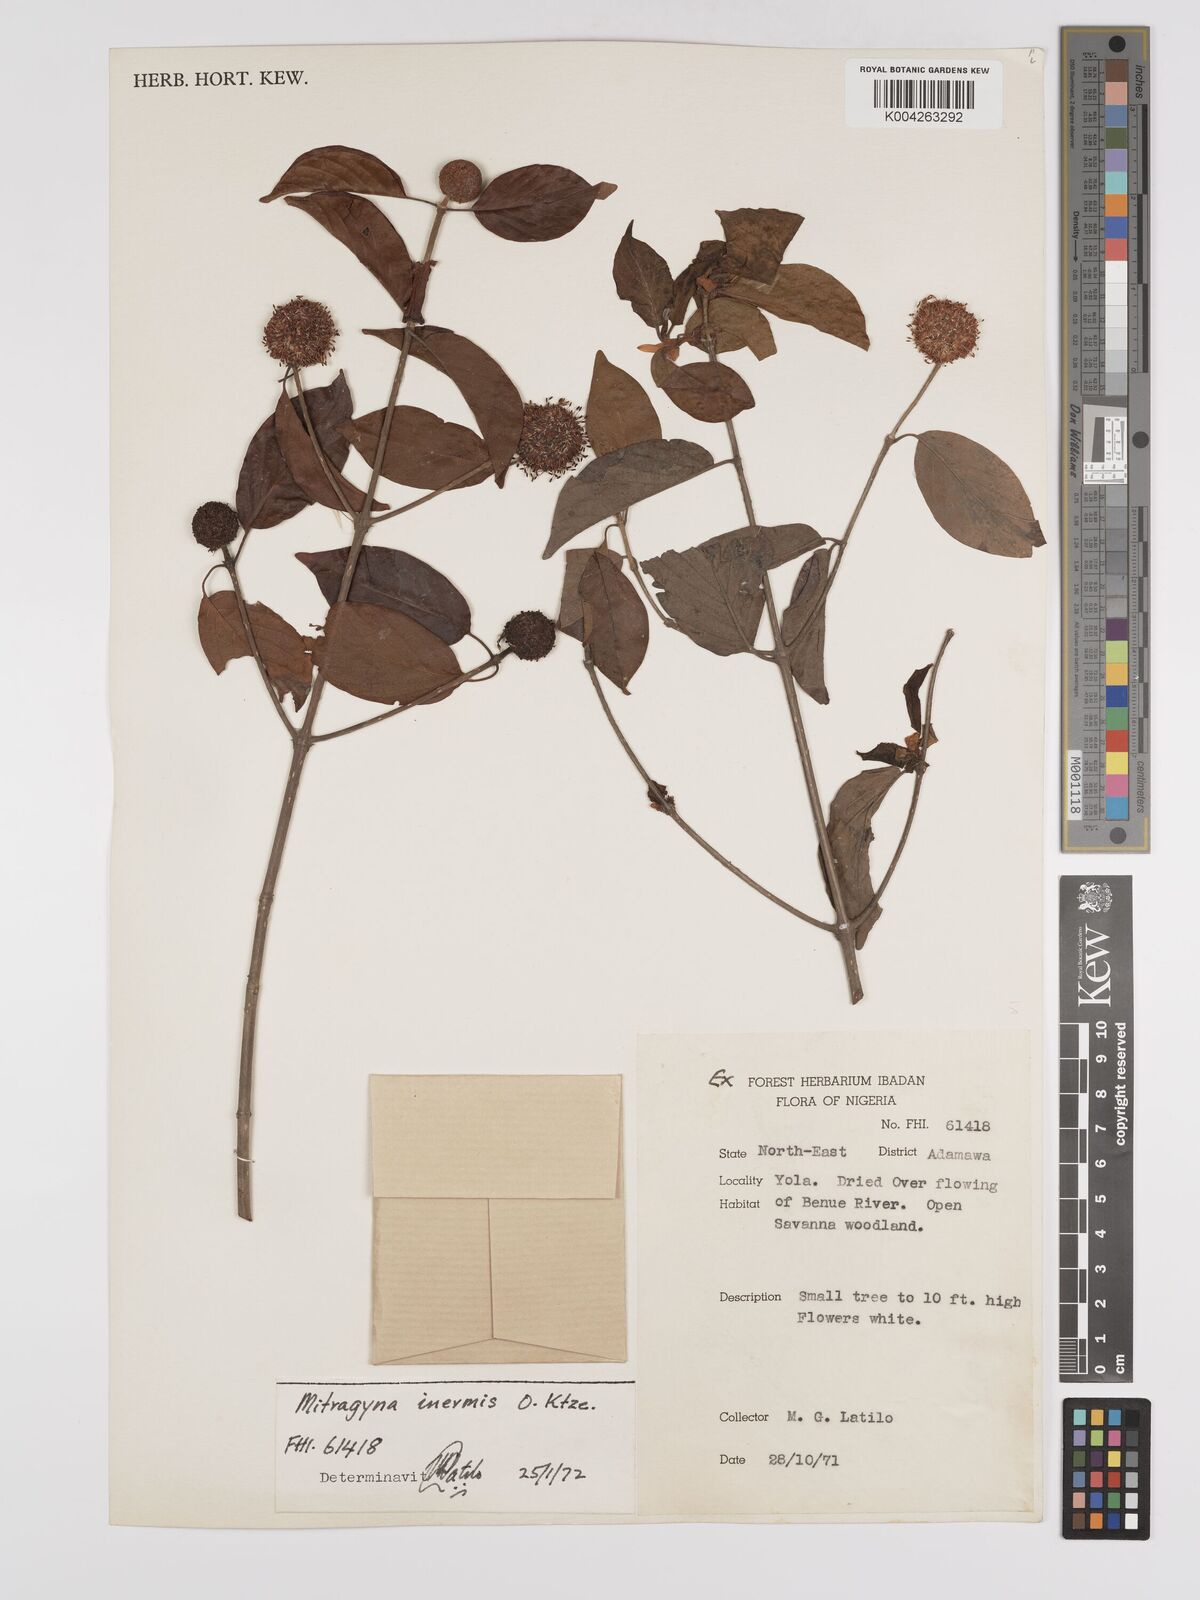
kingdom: Plantae
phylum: Tracheophyta
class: Magnoliopsida
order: Gentianales
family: Rubiaceae
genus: Mitragyna
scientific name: Mitragyna inermis
